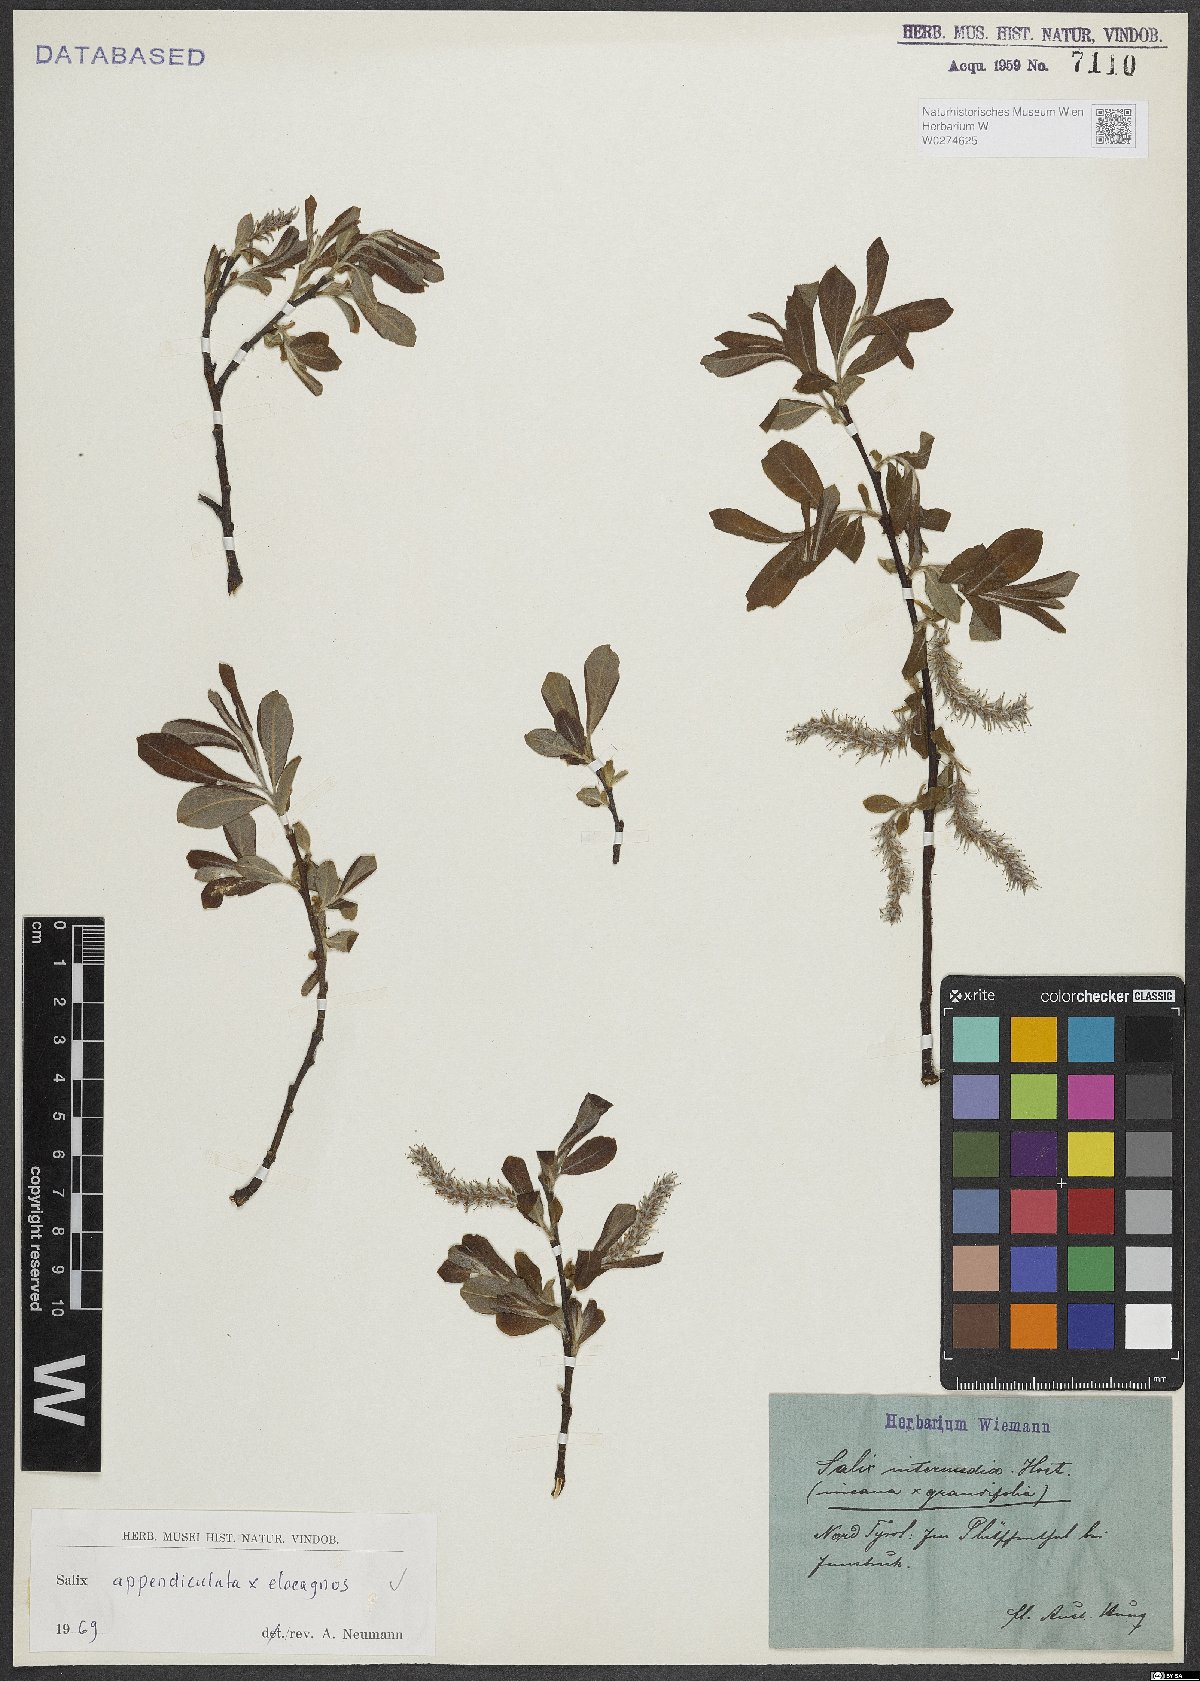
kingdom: Plantae
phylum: Tracheophyta
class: Magnoliopsida
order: Malpighiales
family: Salicaceae
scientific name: Salicaceae
